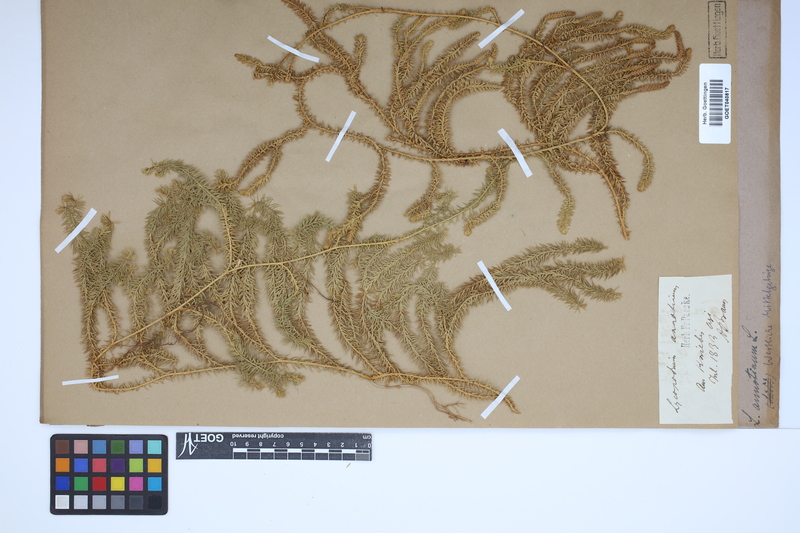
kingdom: Plantae
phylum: Tracheophyta
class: Lycopodiopsida
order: Lycopodiales
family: Lycopodiaceae
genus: Spinulum
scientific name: Spinulum annotinum
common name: Interrupted club-moss
